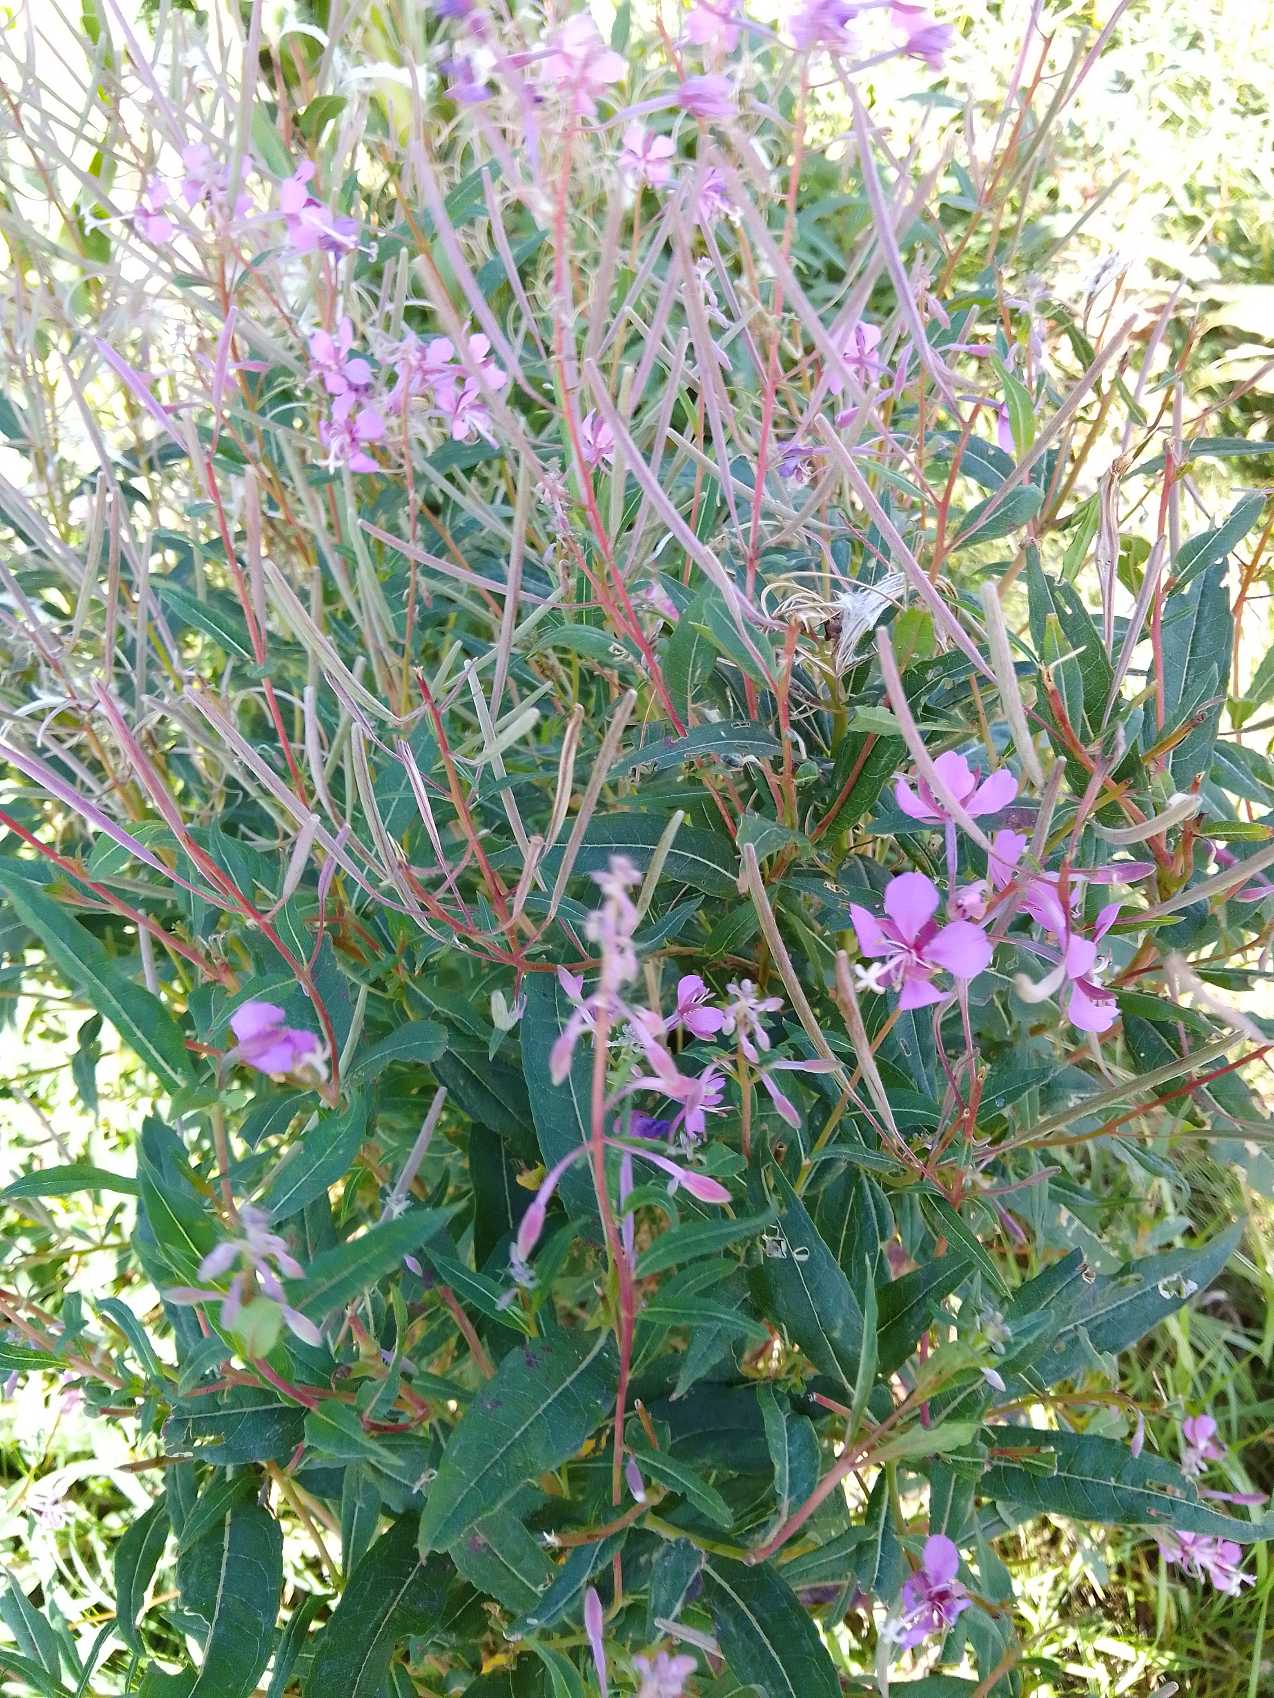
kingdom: Plantae
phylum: Tracheophyta
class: Magnoliopsida
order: Myrtales
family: Onagraceae
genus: Chamaenerion
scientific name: Chamaenerion angustifolium
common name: Gederams
